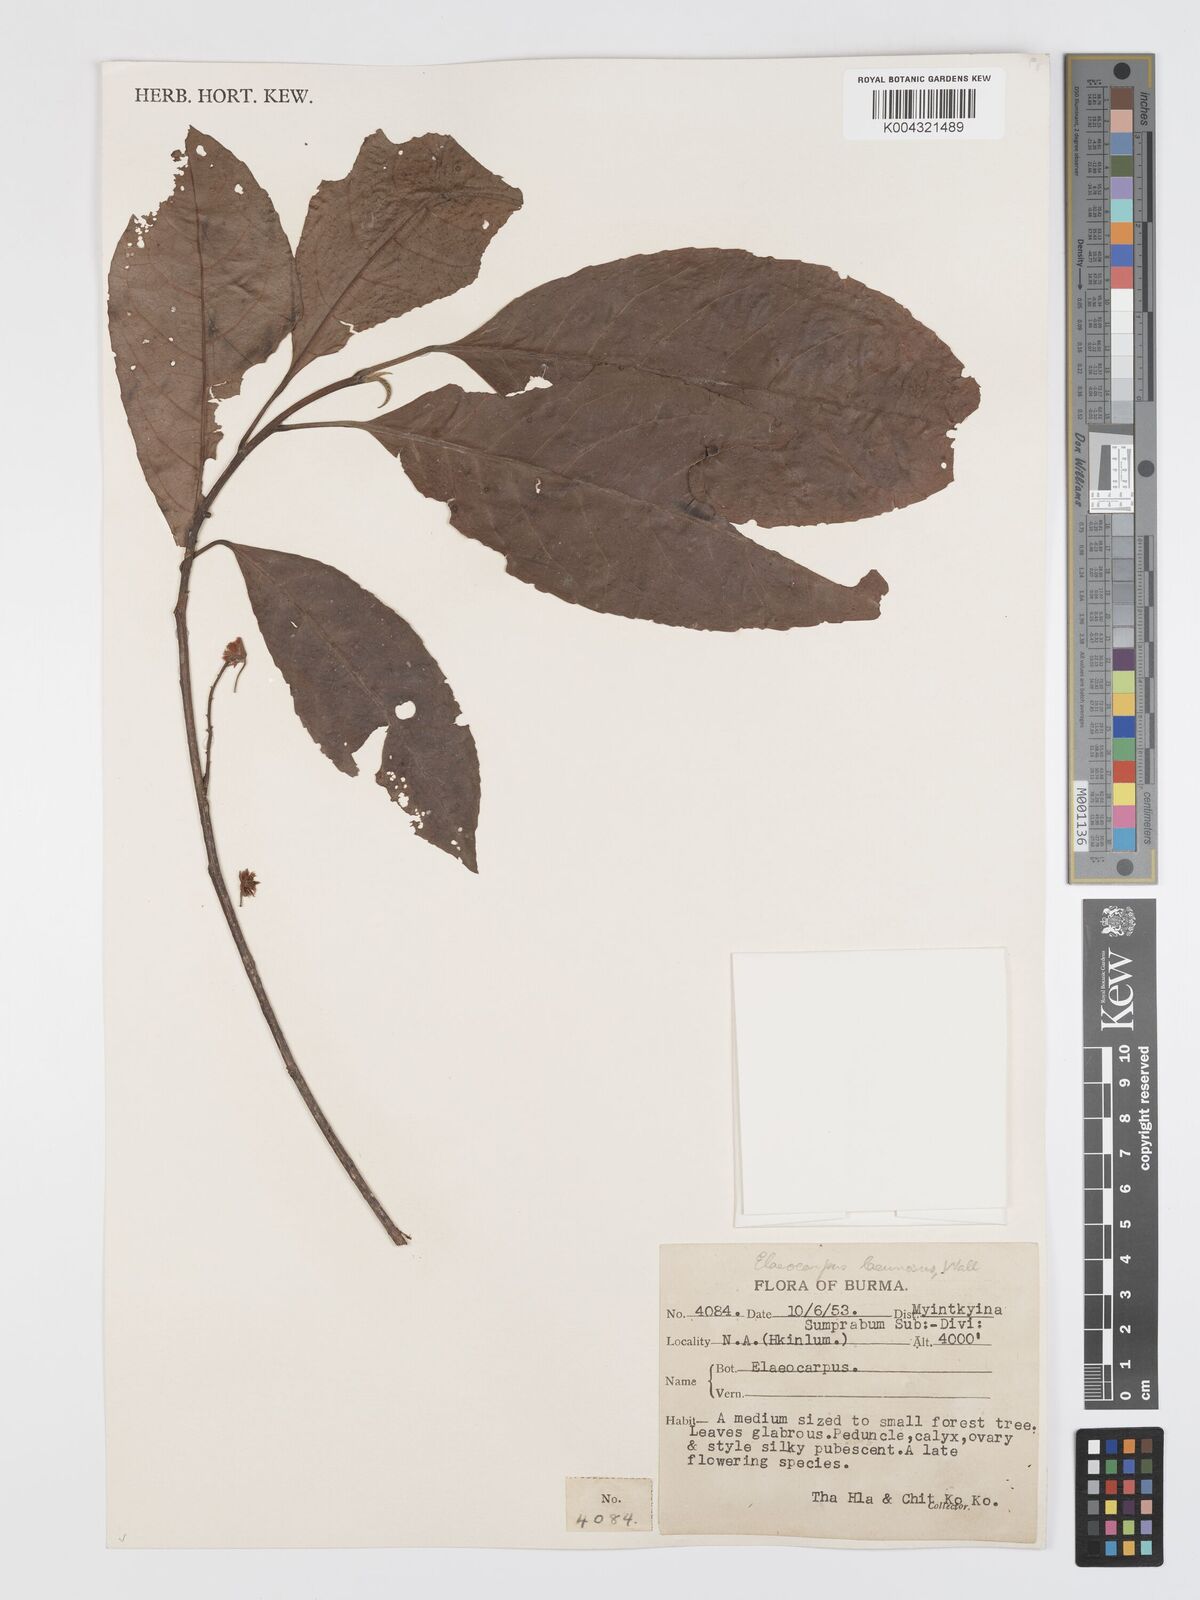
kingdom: Plantae
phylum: Tracheophyta
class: Magnoliopsida
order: Oxalidales
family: Elaeocarpaceae
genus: Elaeocarpus
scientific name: Elaeocarpus lanceifolius
